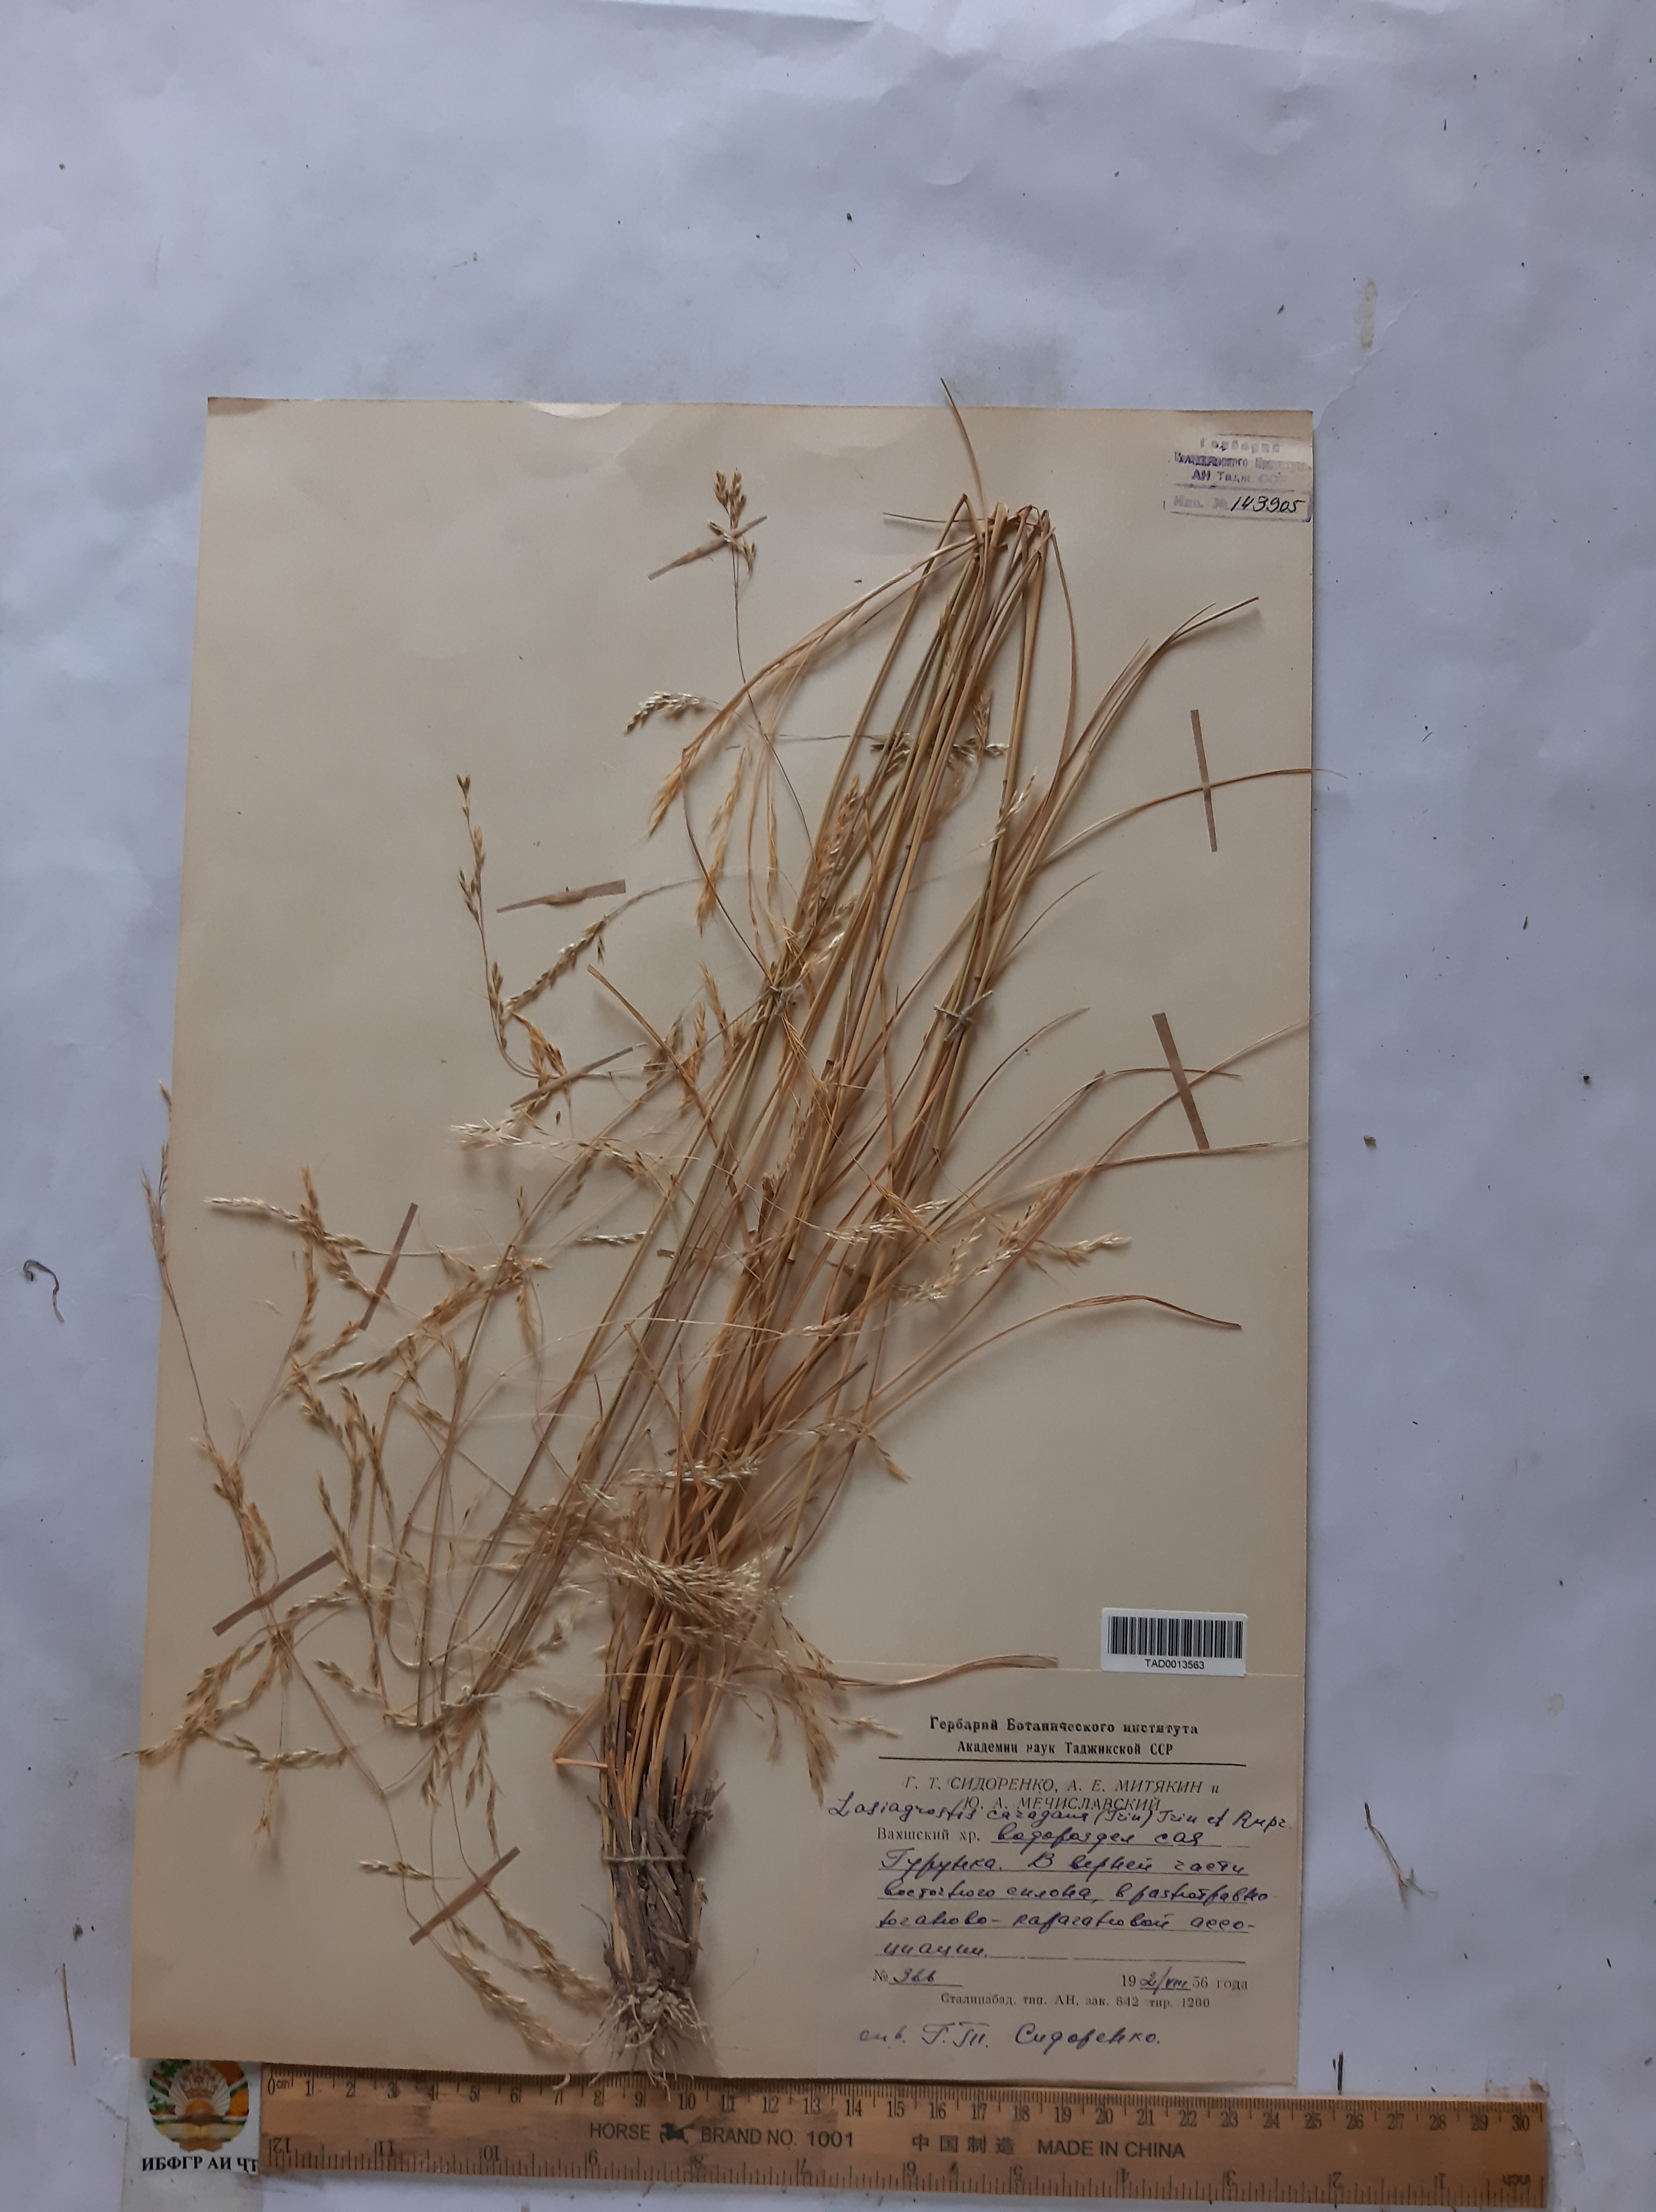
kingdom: Plantae
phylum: Tracheophyta
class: Liliopsida
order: Poales
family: Poaceae
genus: Stipa
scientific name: Stipa conferta
